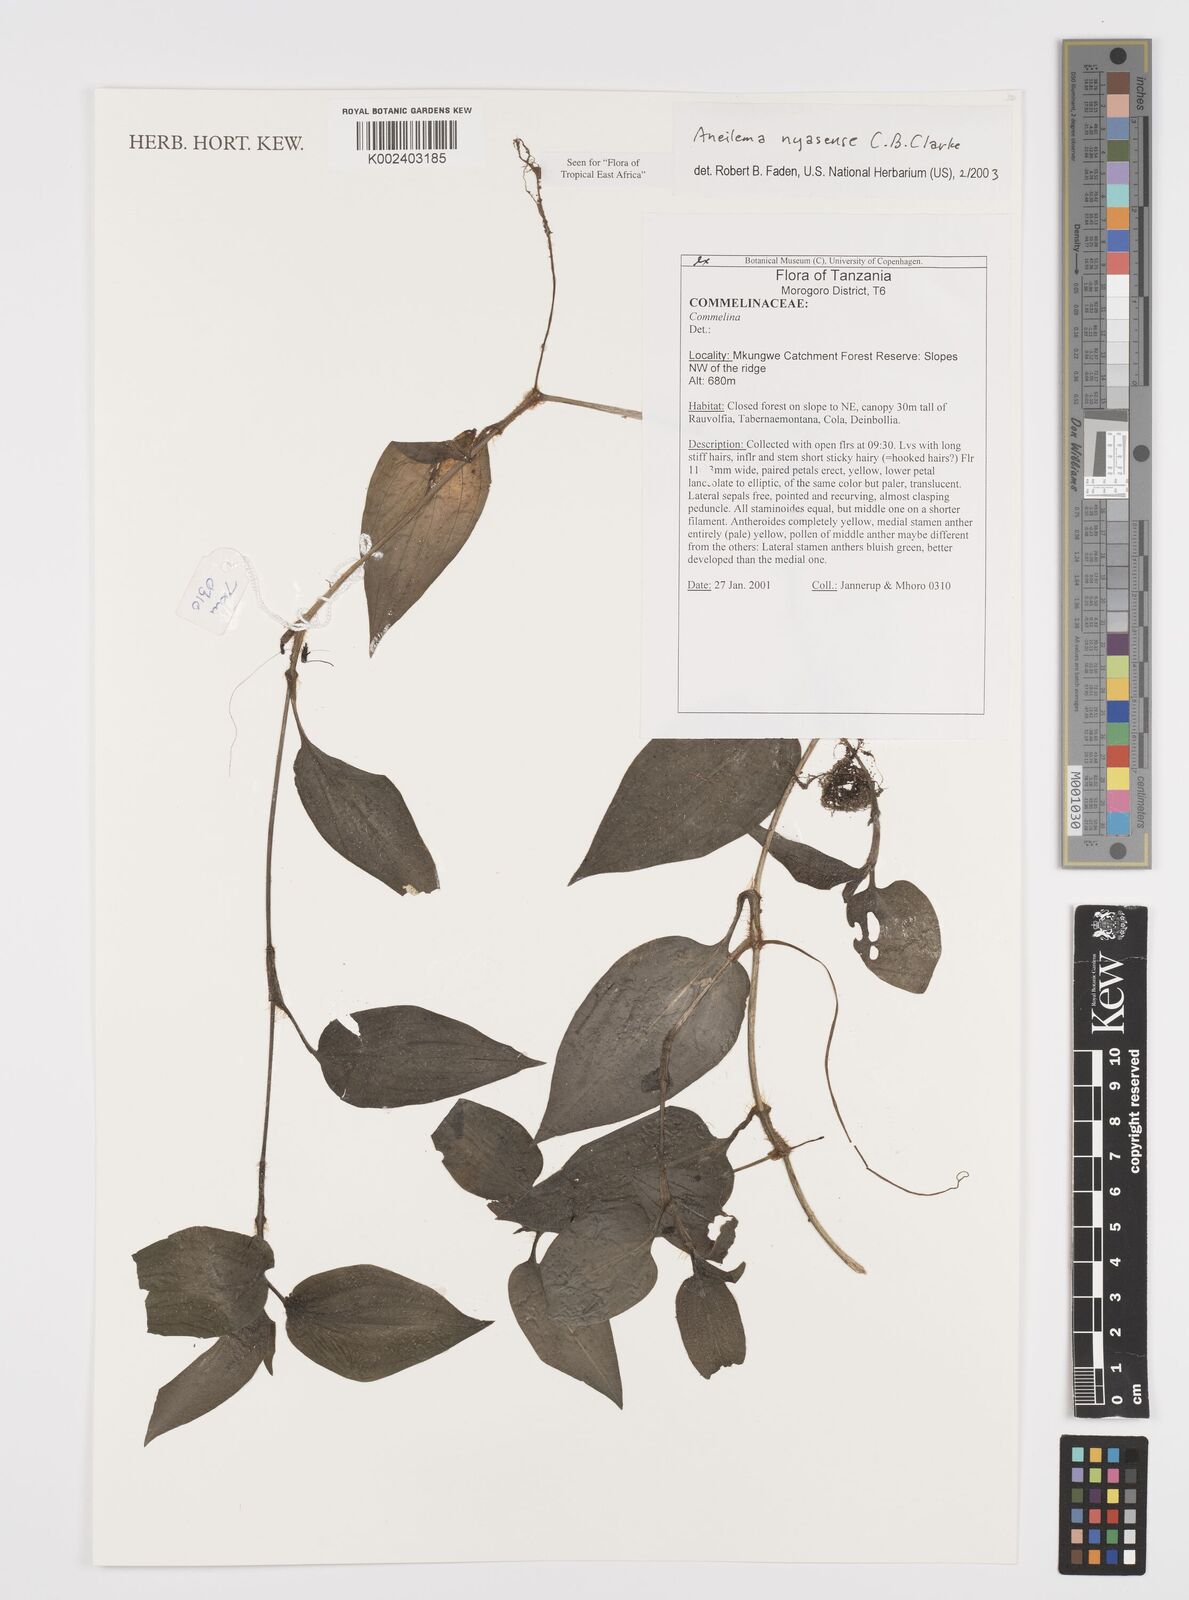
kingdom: Plantae
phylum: Tracheophyta
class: Liliopsida
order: Commelinales
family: Commelinaceae
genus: Aneilema
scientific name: Aneilema nyasense
